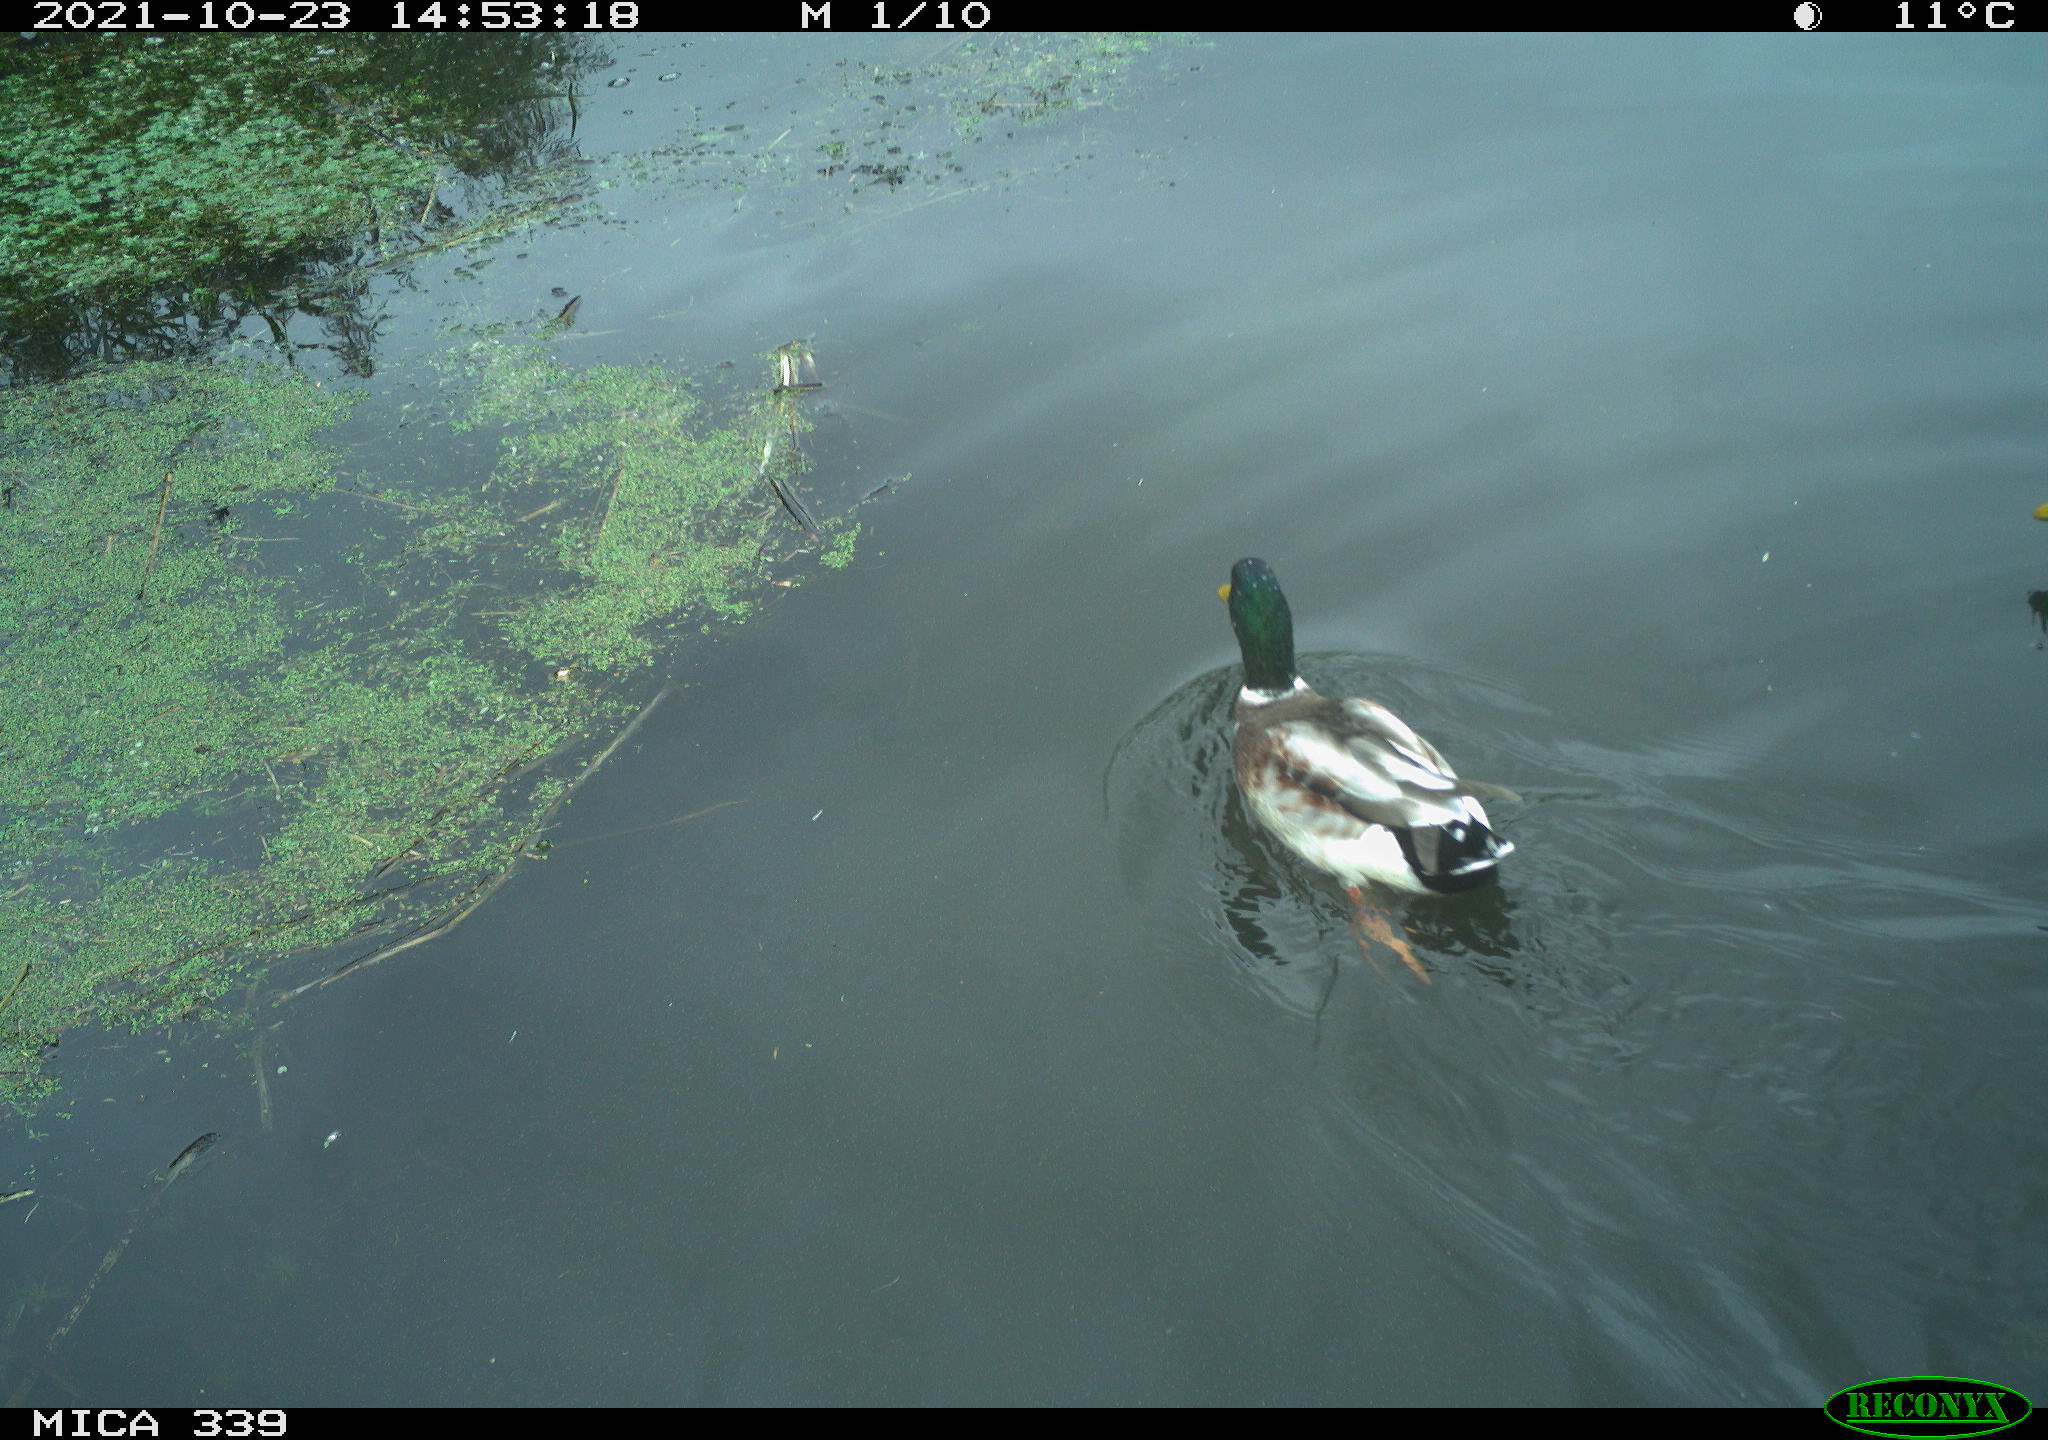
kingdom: Animalia
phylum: Chordata
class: Aves
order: Anseriformes
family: Anatidae
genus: Anas
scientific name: Anas platyrhynchos
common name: Mallard
